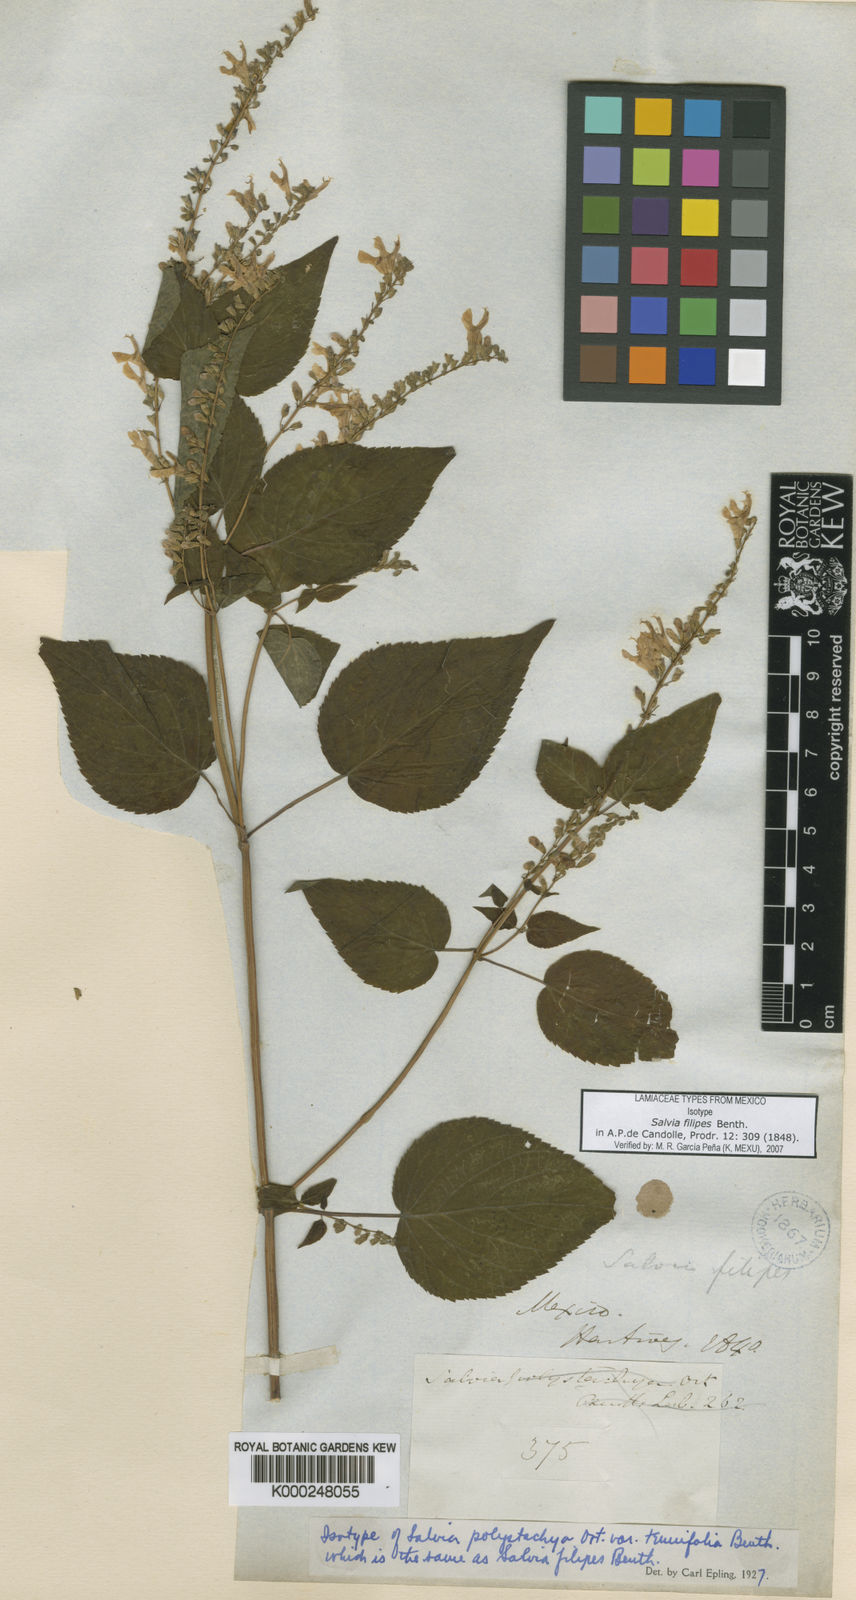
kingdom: Plantae
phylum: Tracheophyta
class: Magnoliopsida
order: Lamiales
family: Lamiaceae
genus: Salvia
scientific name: Salvia filipes
